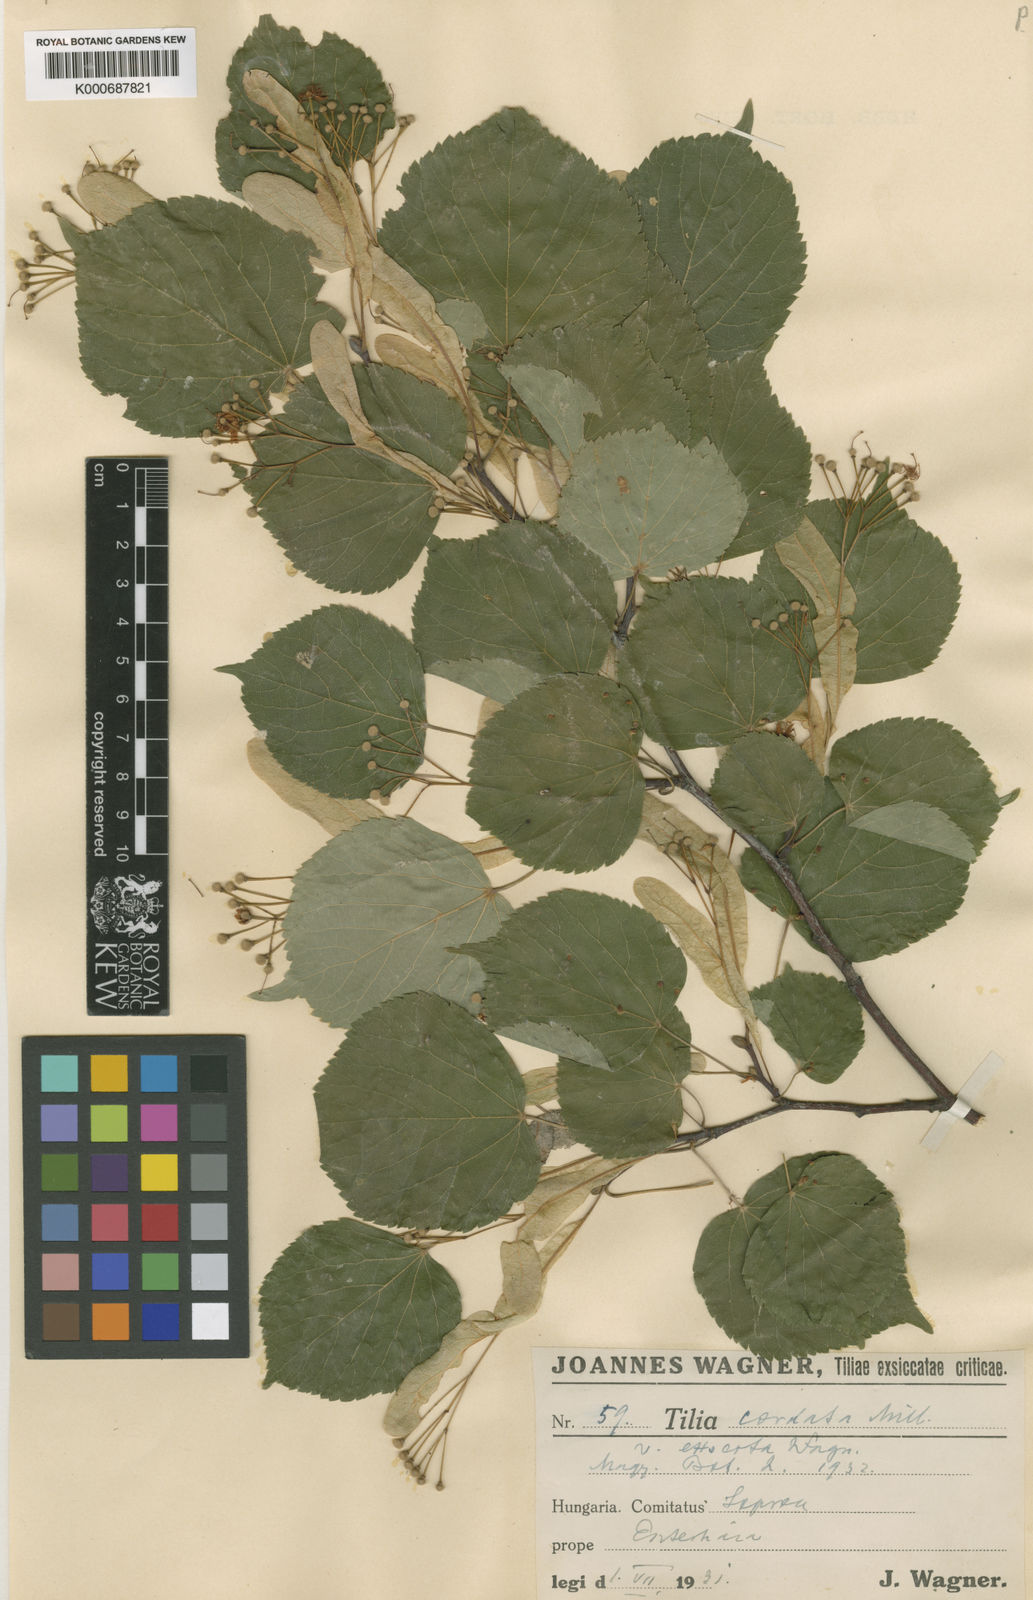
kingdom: Plantae
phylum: Tracheophyta
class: Magnoliopsida
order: Malvales
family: Malvaceae
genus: Tilia
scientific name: Tilia cordata
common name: Small-leaved lime
